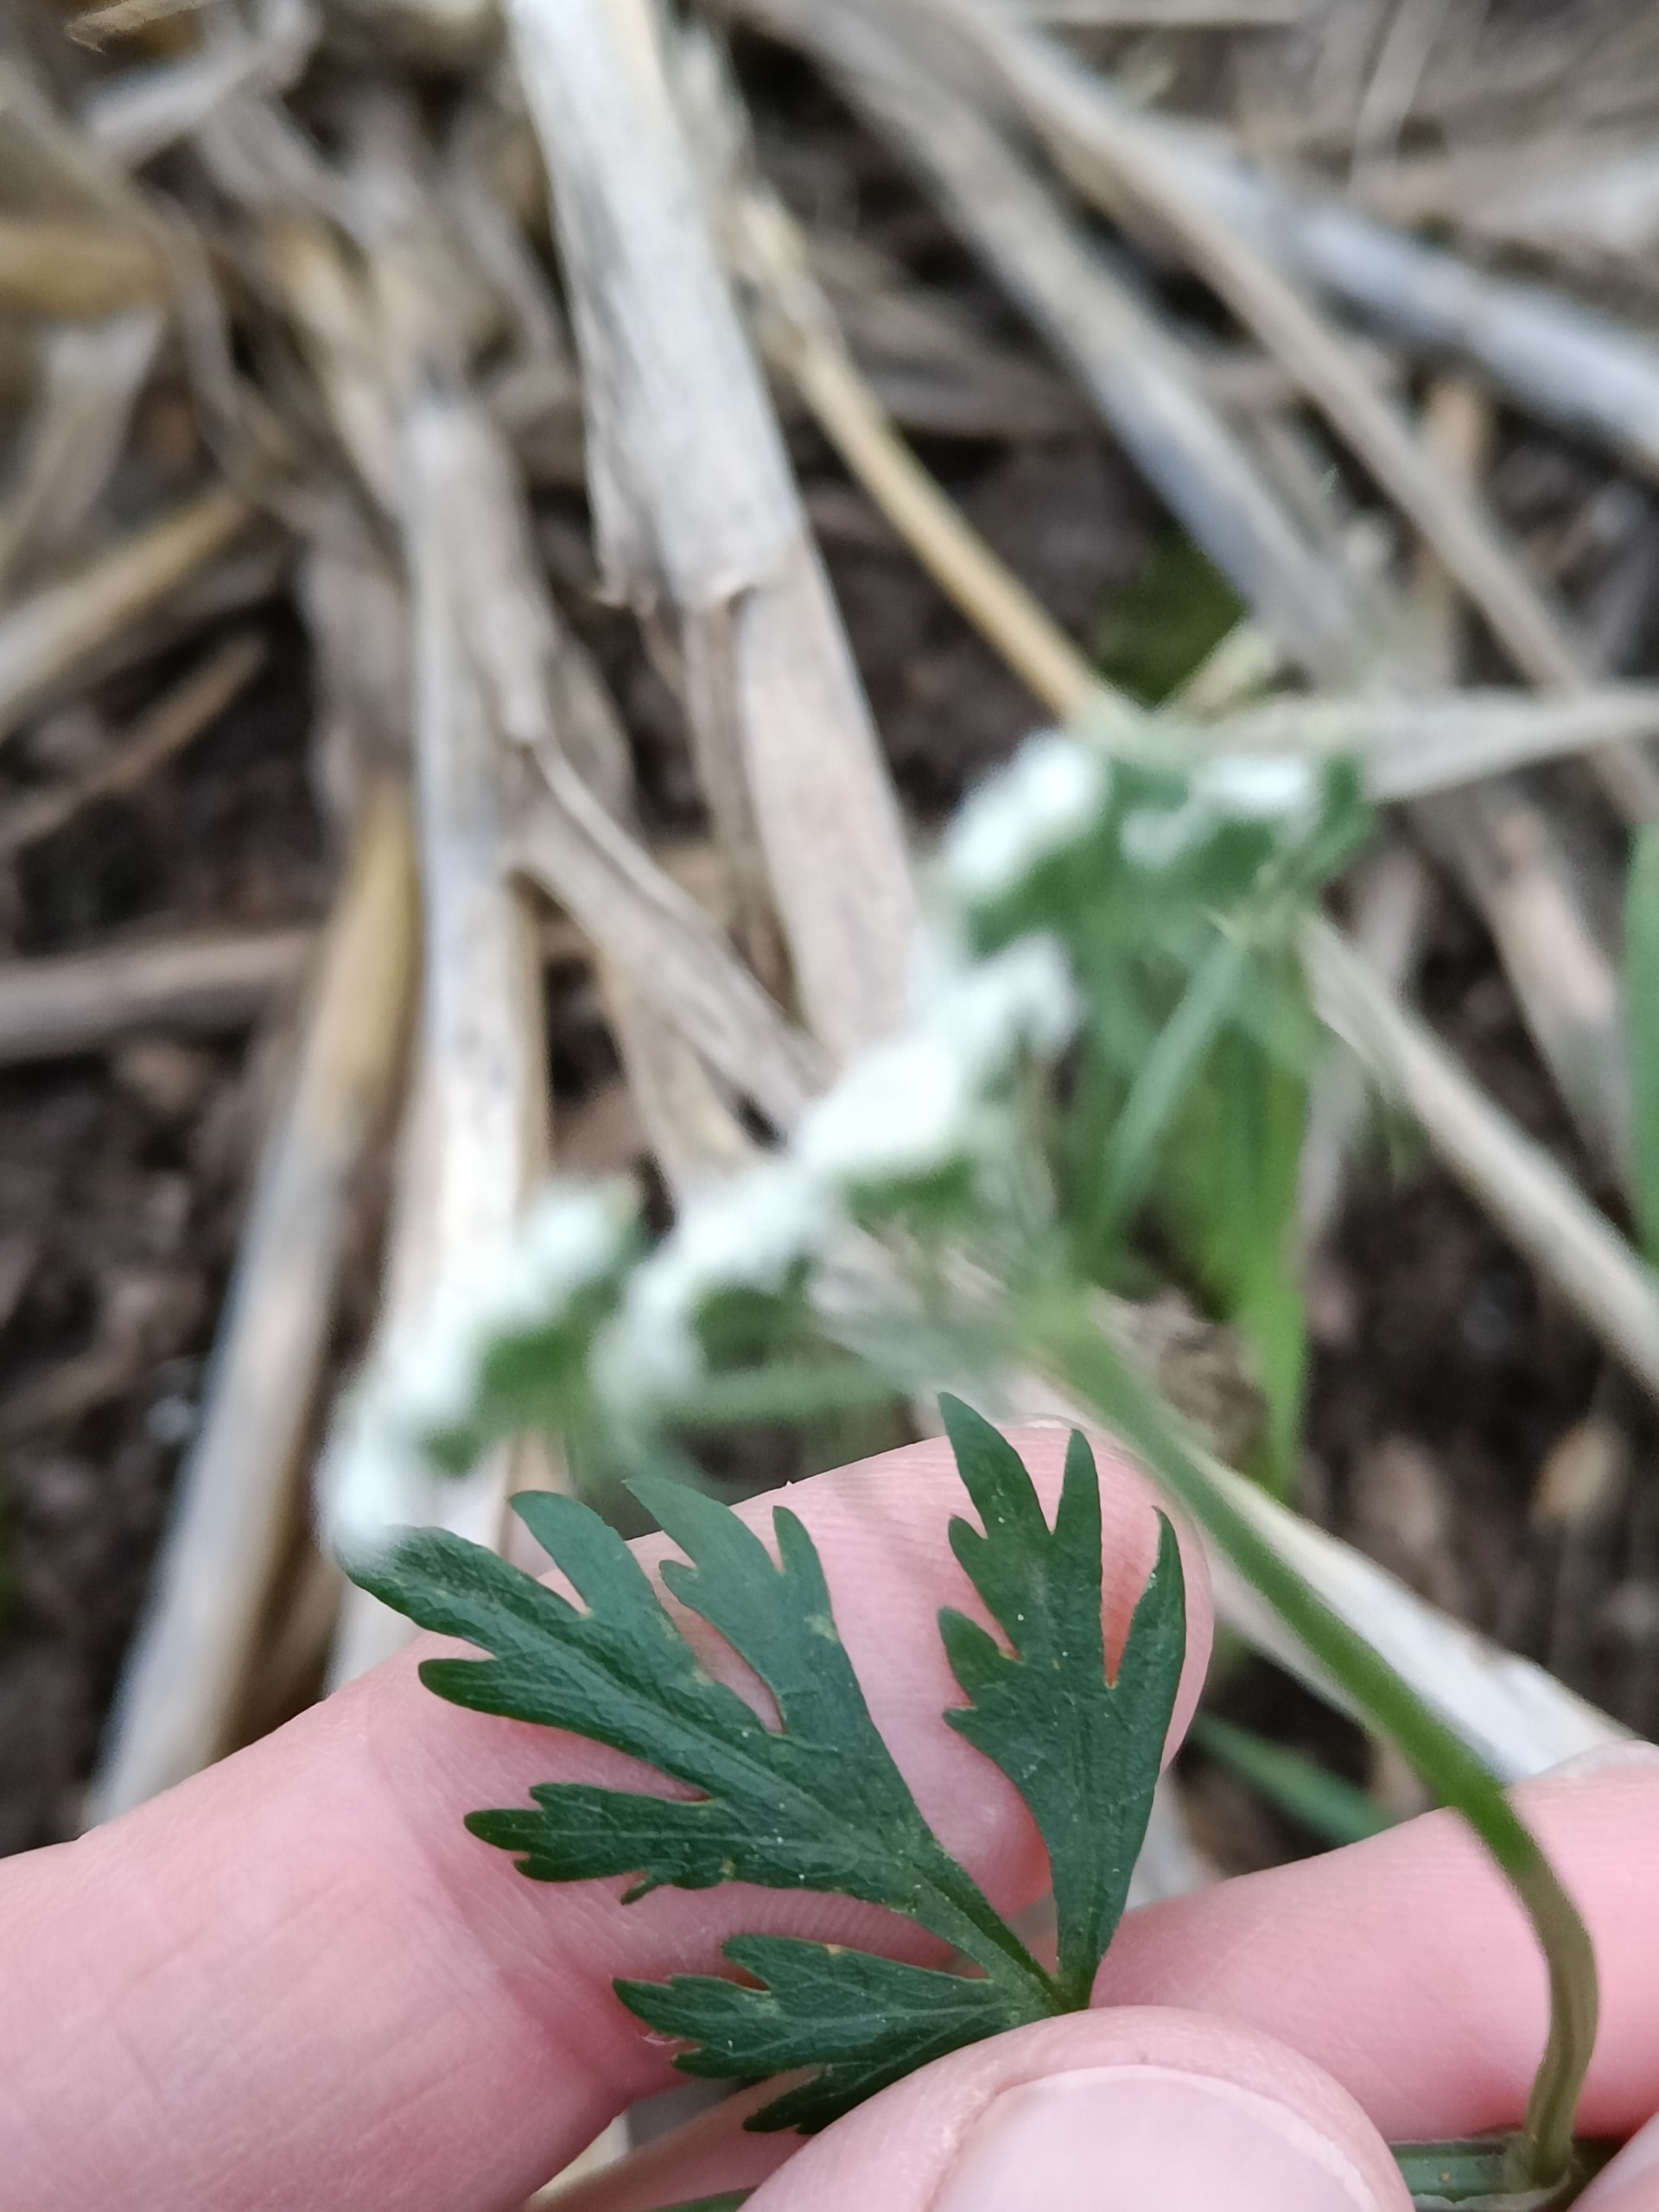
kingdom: Plantae
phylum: Tracheophyta
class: Magnoliopsida
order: Apiales
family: Apiaceae
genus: Aethusa
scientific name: Aethusa cynapium
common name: Hundepersille
